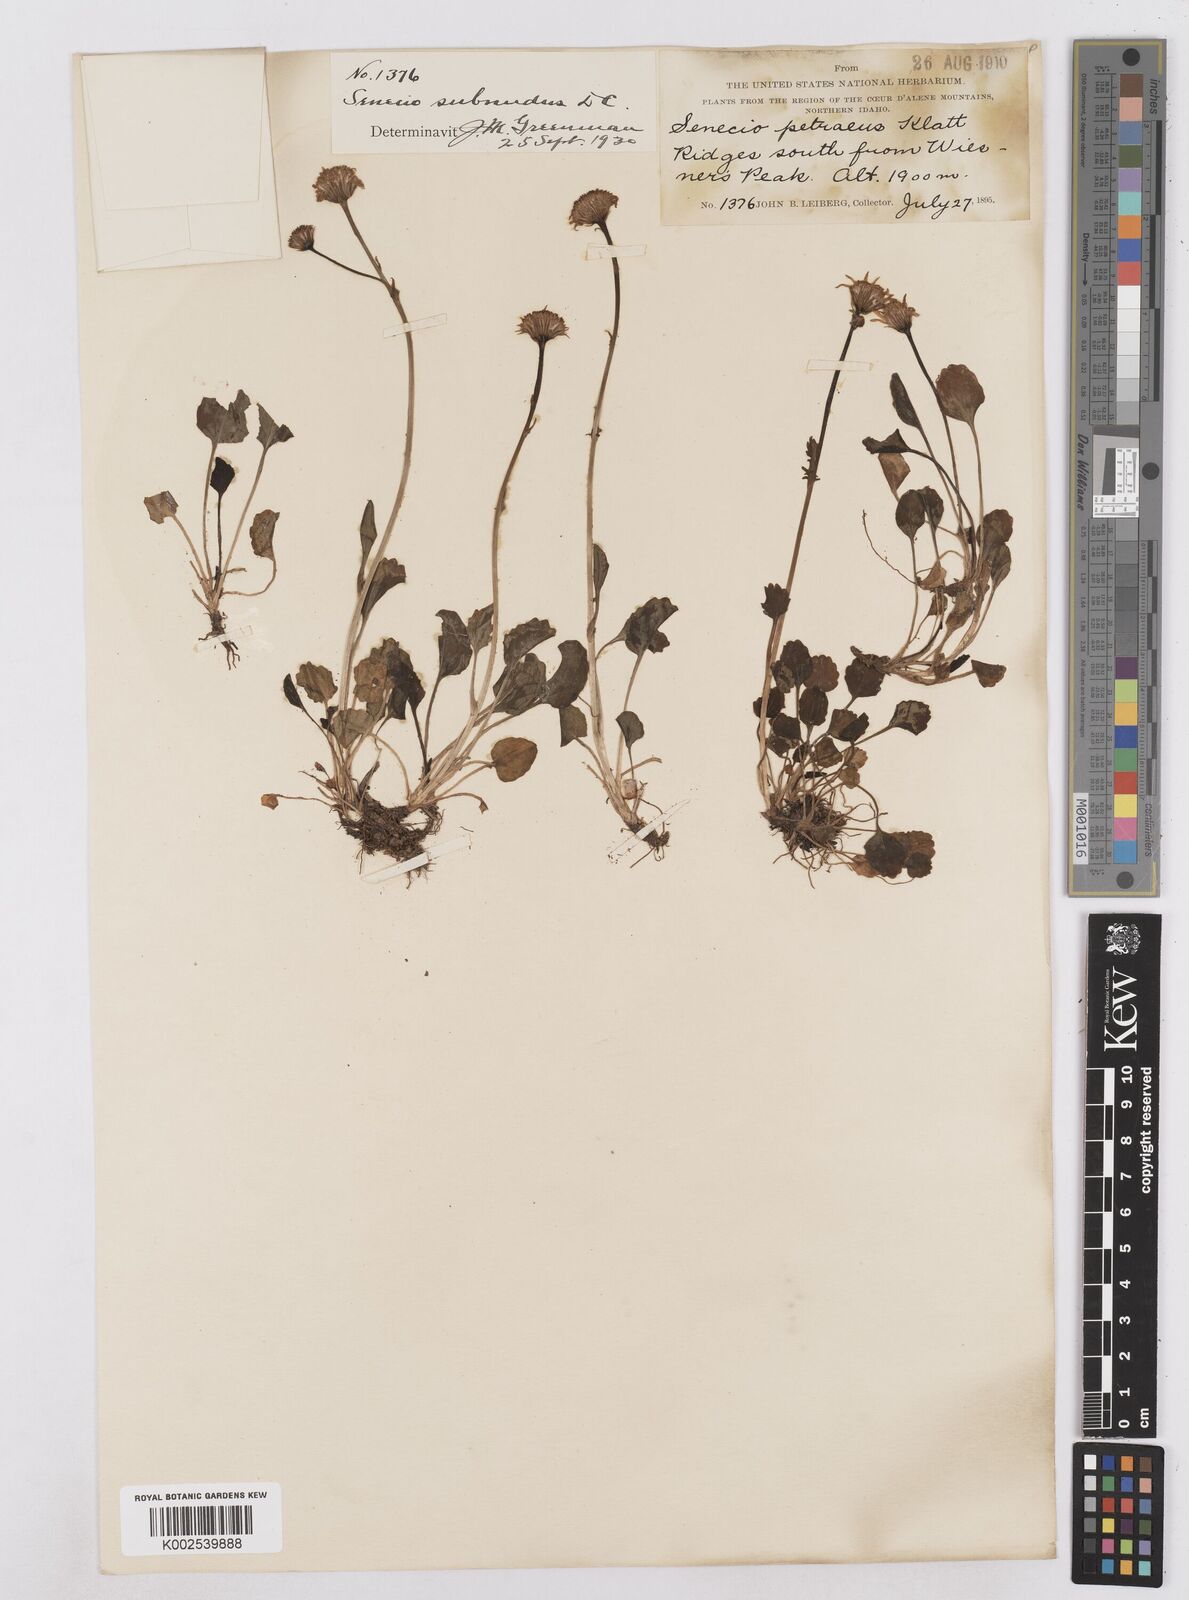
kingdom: Plantae
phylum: Tracheophyta
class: Magnoliopsida
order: Asterales
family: Asteraceae
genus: Packera
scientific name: Packera aurea
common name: Golden groundsel
